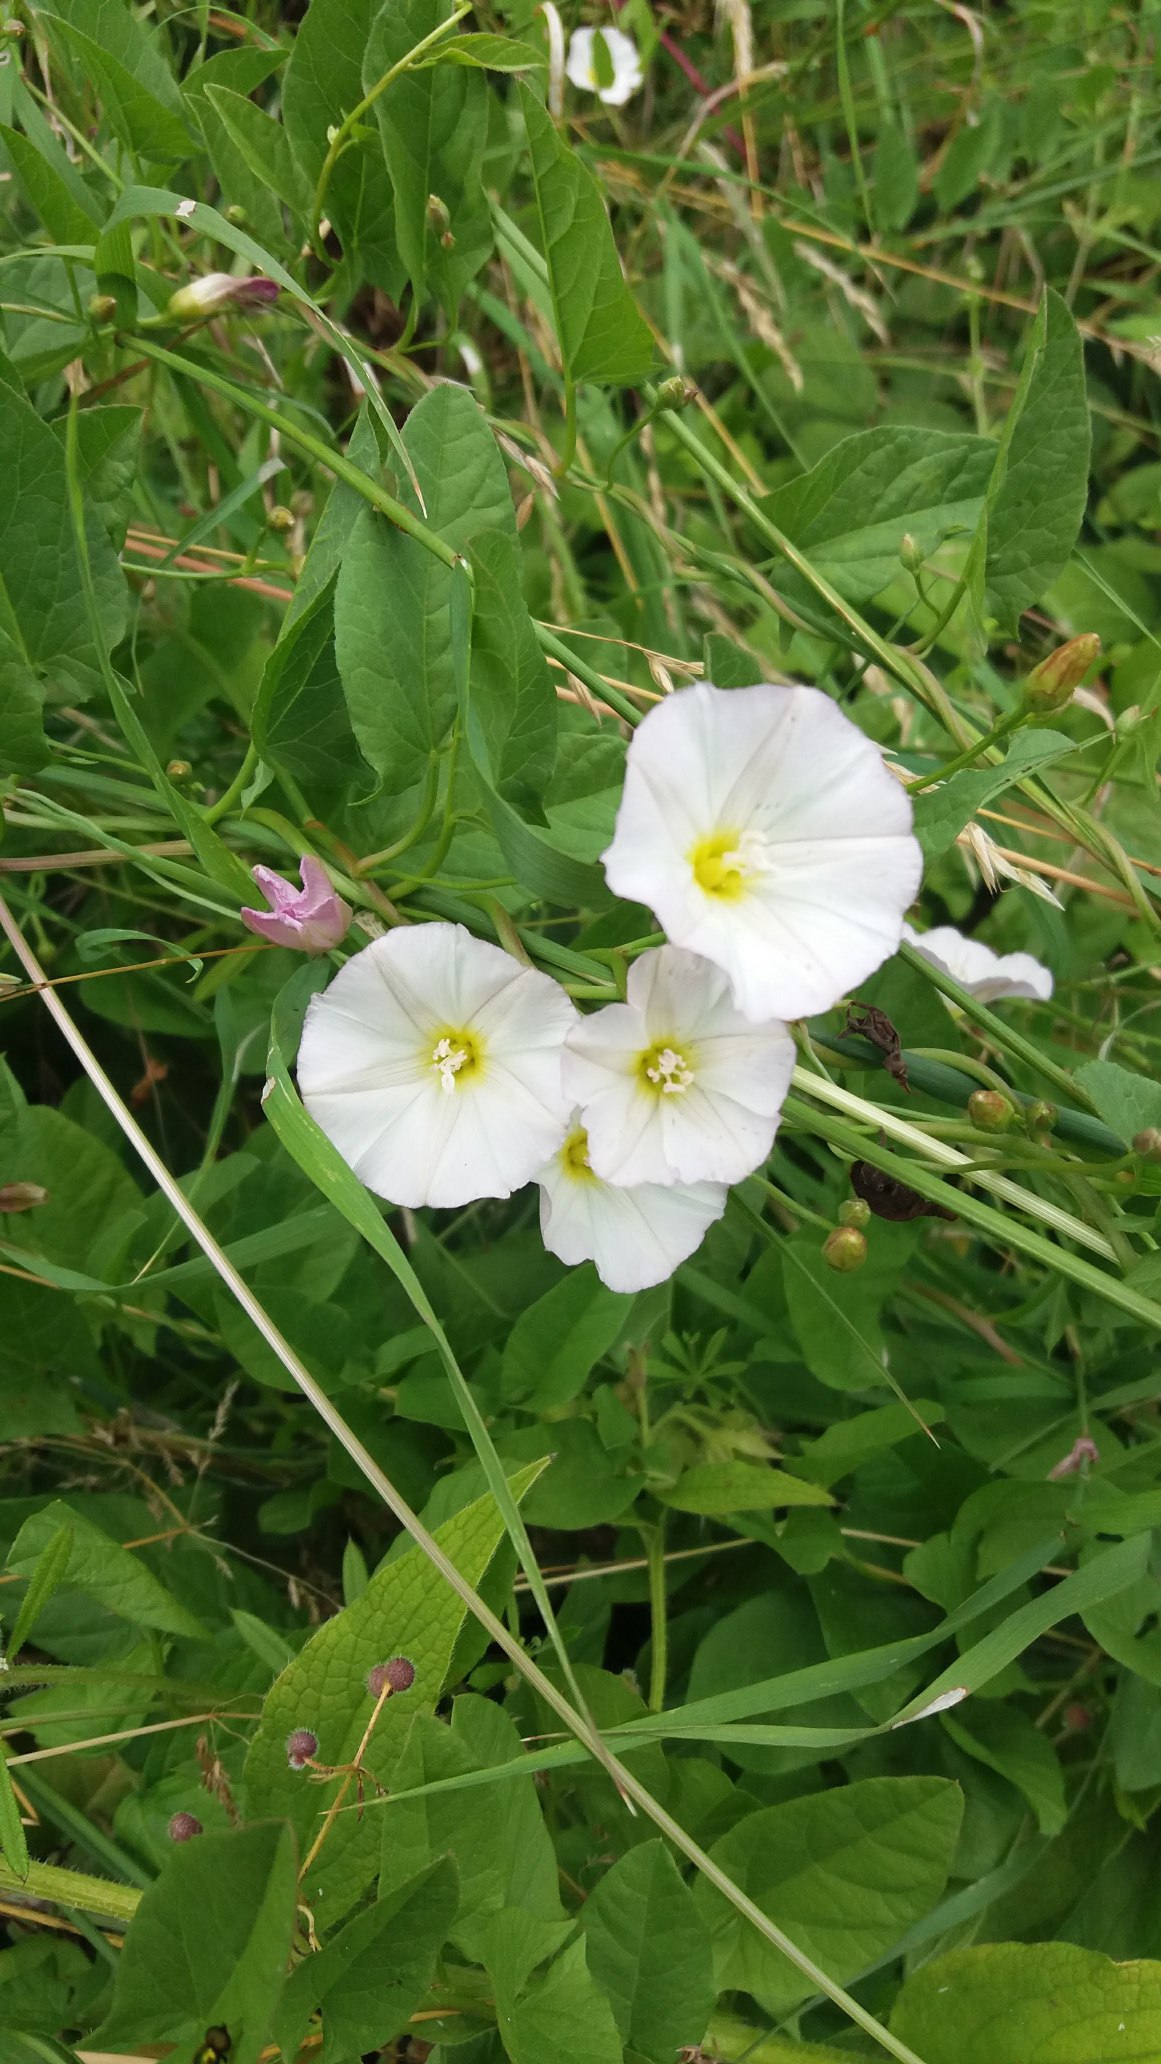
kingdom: Plantae
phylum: Tracheophyta
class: Magnoliopsida
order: Solanales
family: Convolvulaceae
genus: Convolvulus
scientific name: Convolvulus arvensis
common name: Ager-snerle
